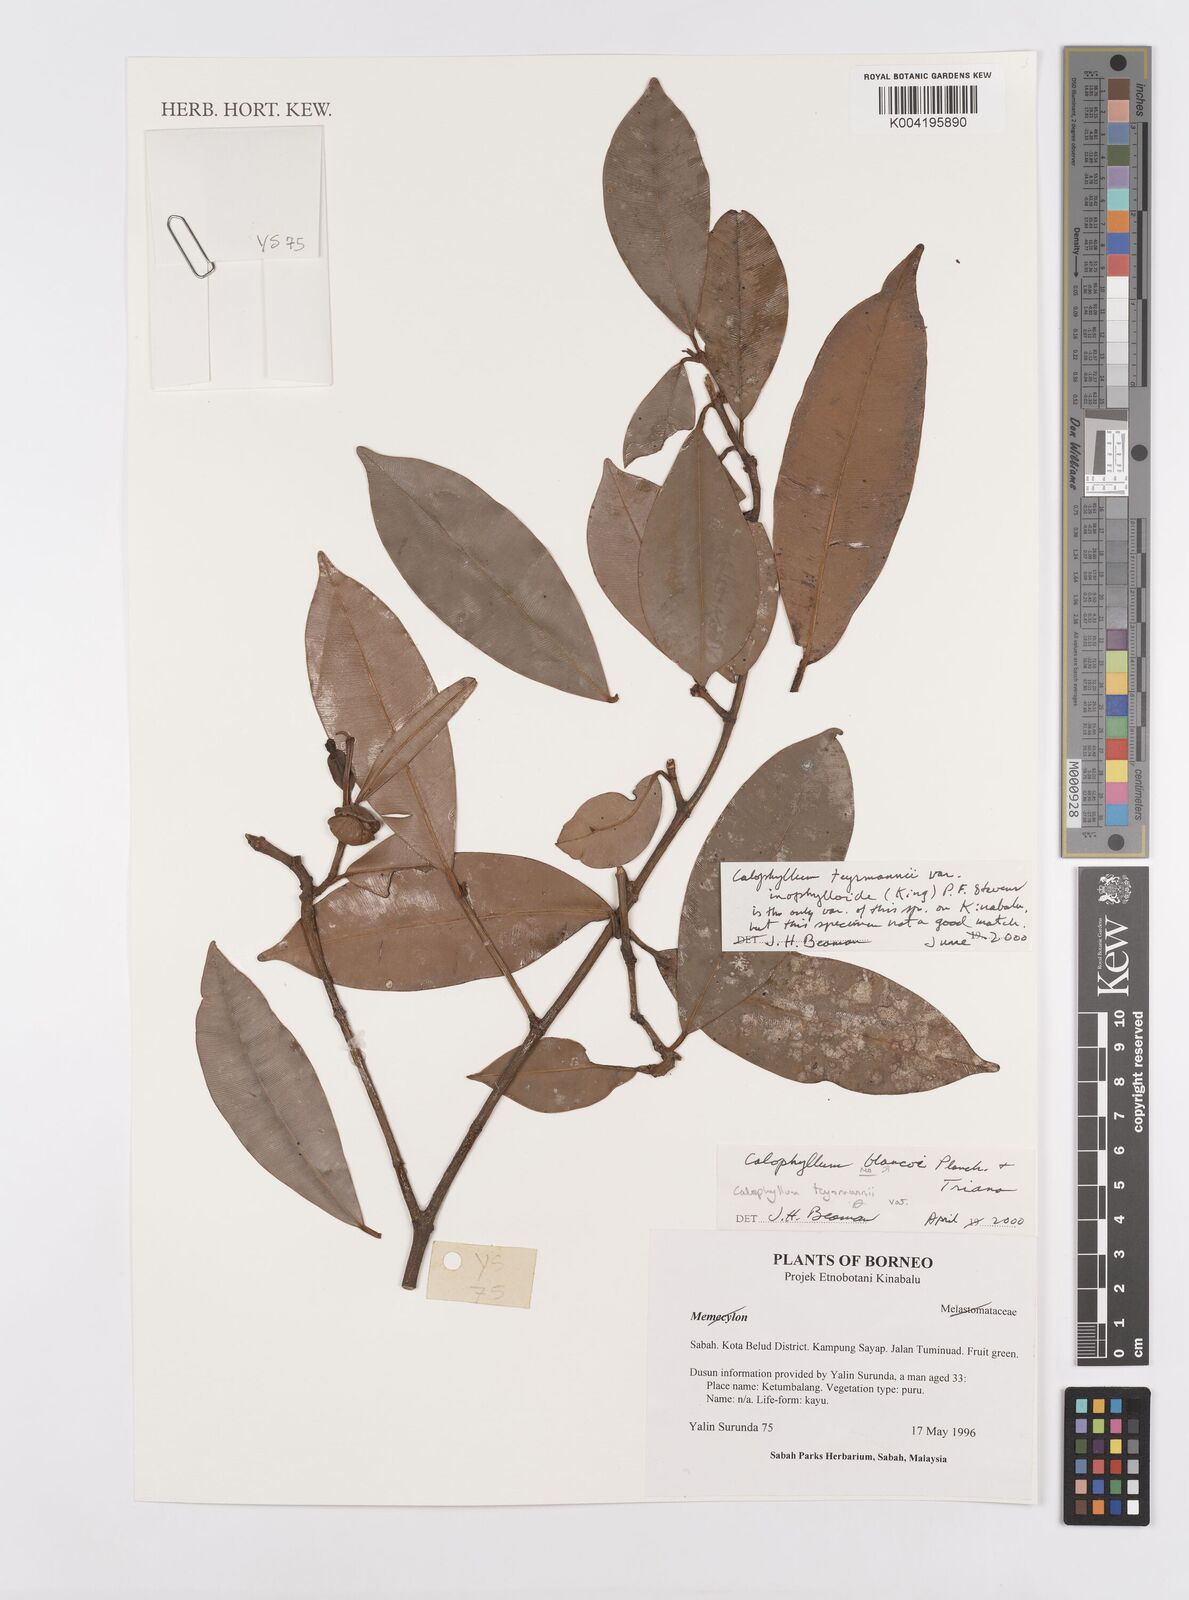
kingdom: Plantae
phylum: Tracheophyta
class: Magnoliopsida
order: Malpighiales
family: Calophyllaceae
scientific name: Calophyllaceae
